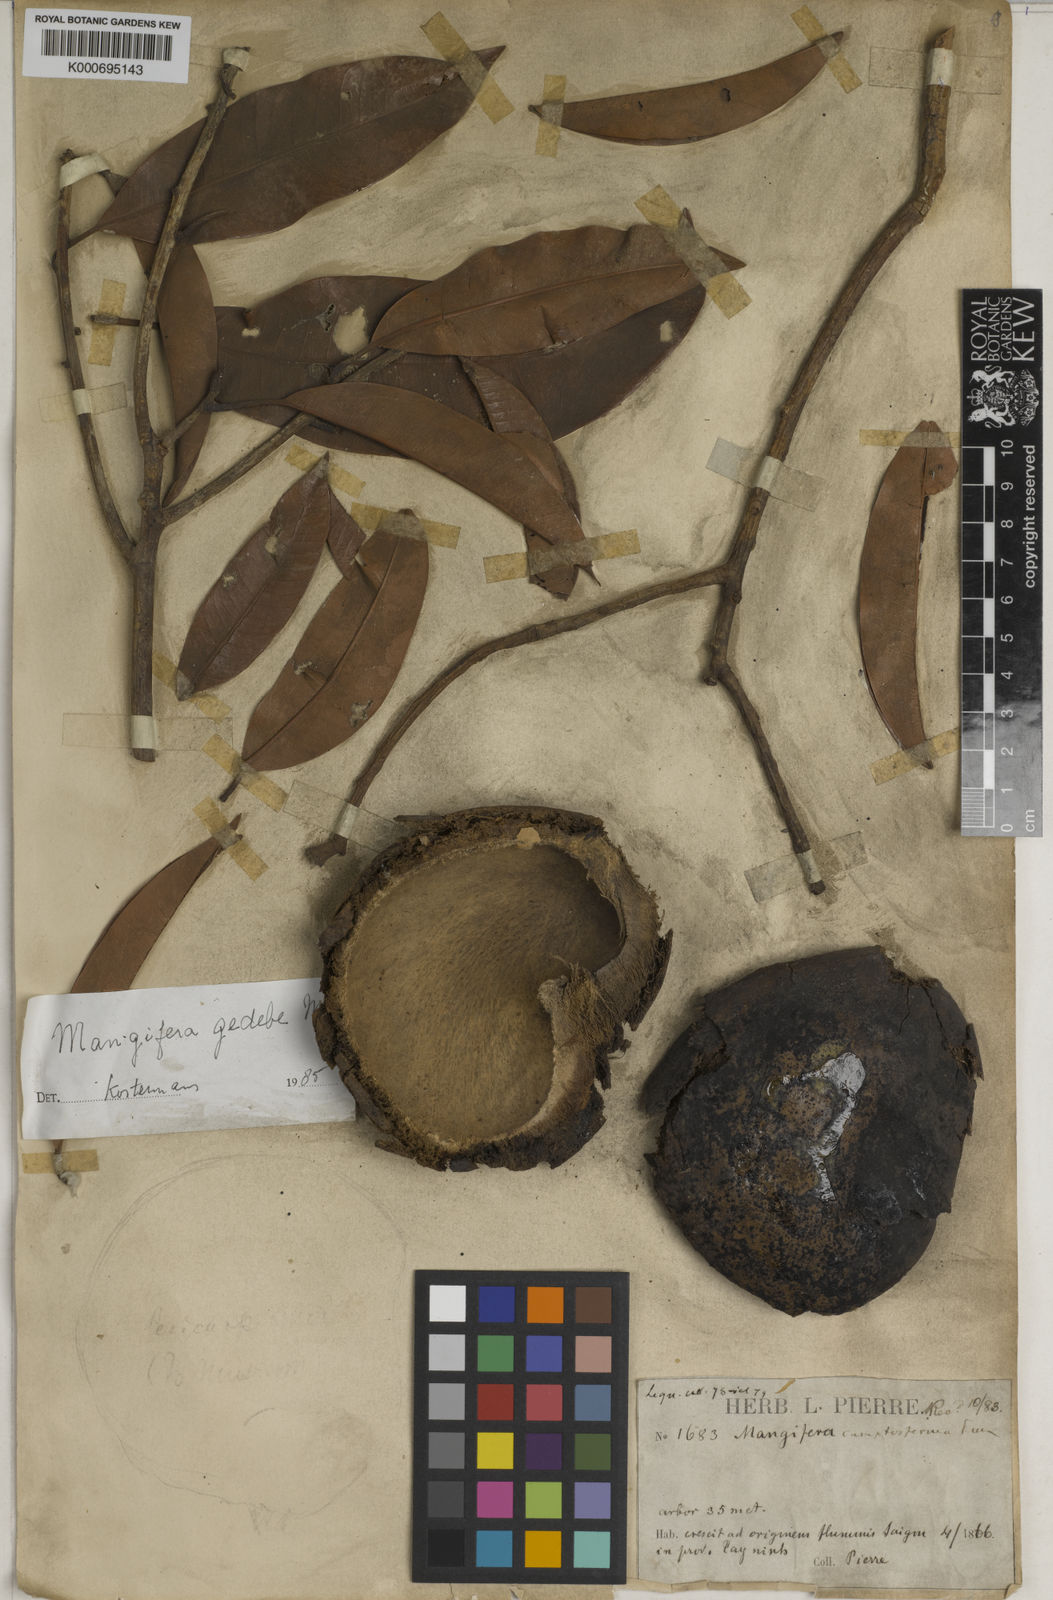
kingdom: Plantae
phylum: Tracheophyta
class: Magnoliopsida
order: Sapindales
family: Anacardiaceae
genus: Mangifera
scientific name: Mangifera camptosperma
